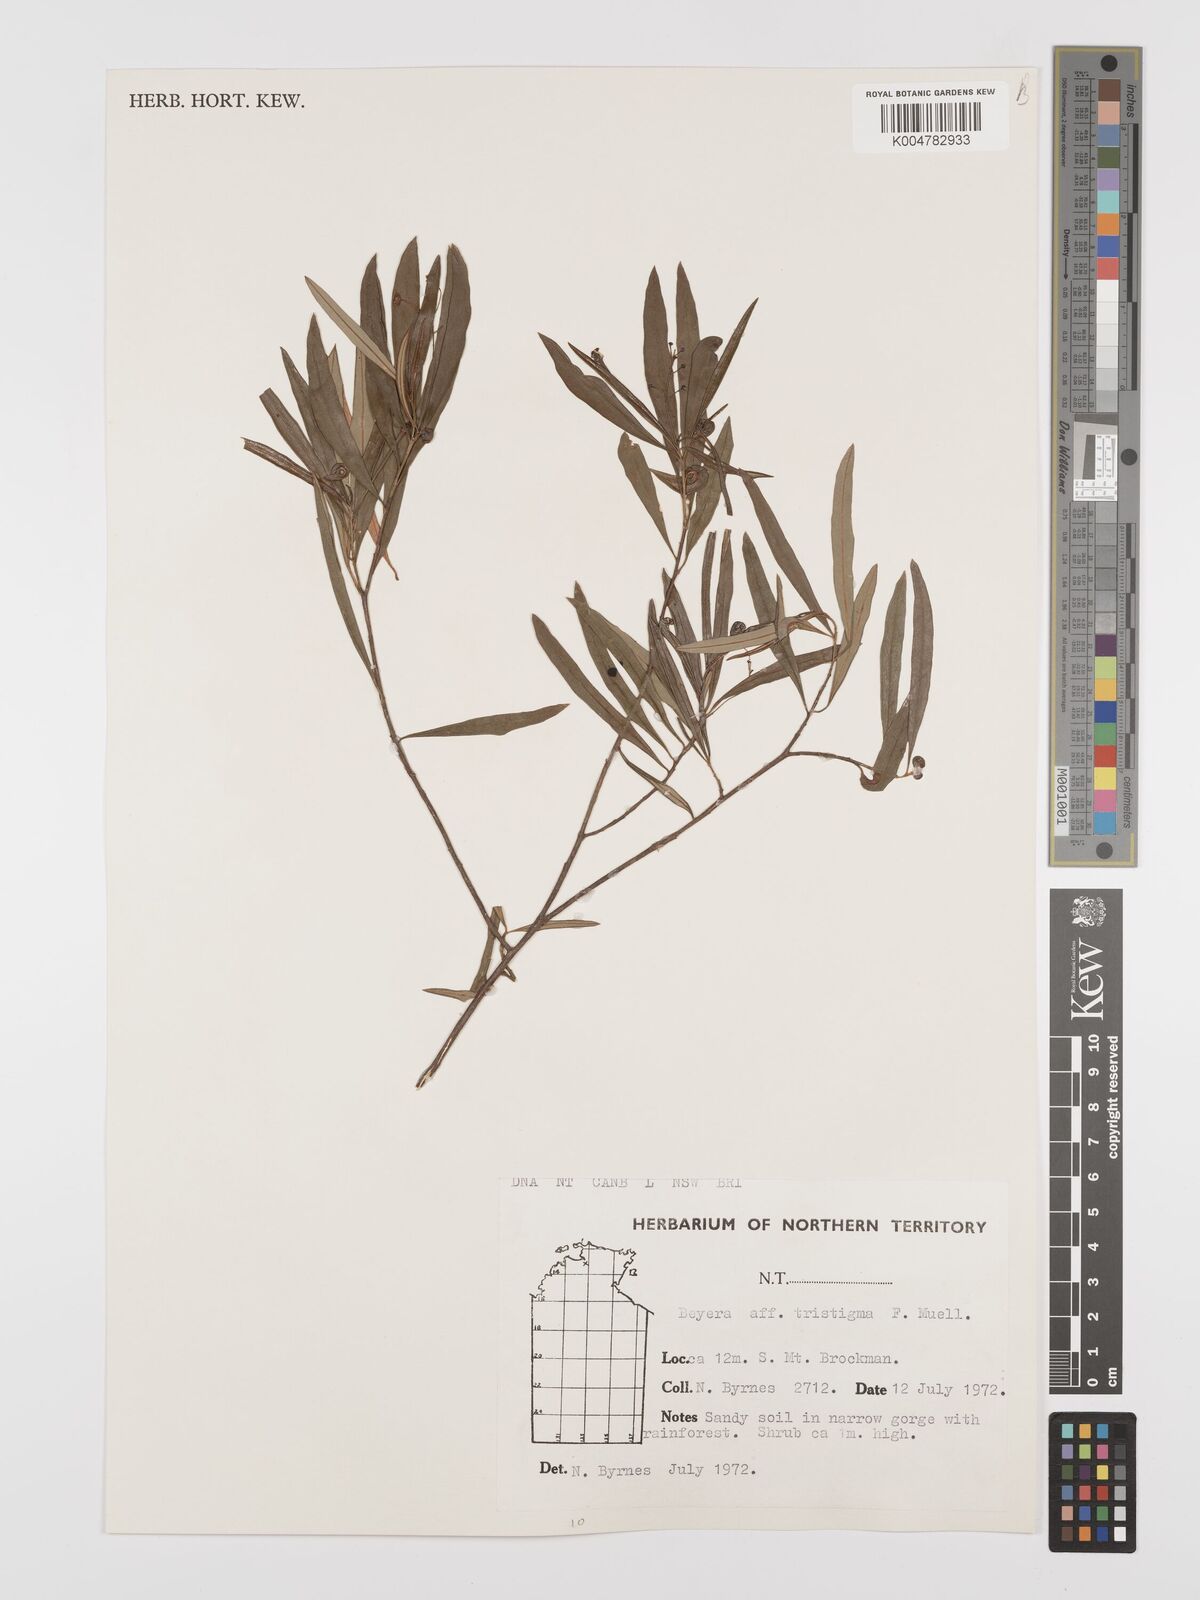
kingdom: Plantae
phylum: Tracheophyta
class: Magnoliopsida
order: Malpighiales
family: Euphorbiaceae
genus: Shonia
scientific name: Shonia tristigma
